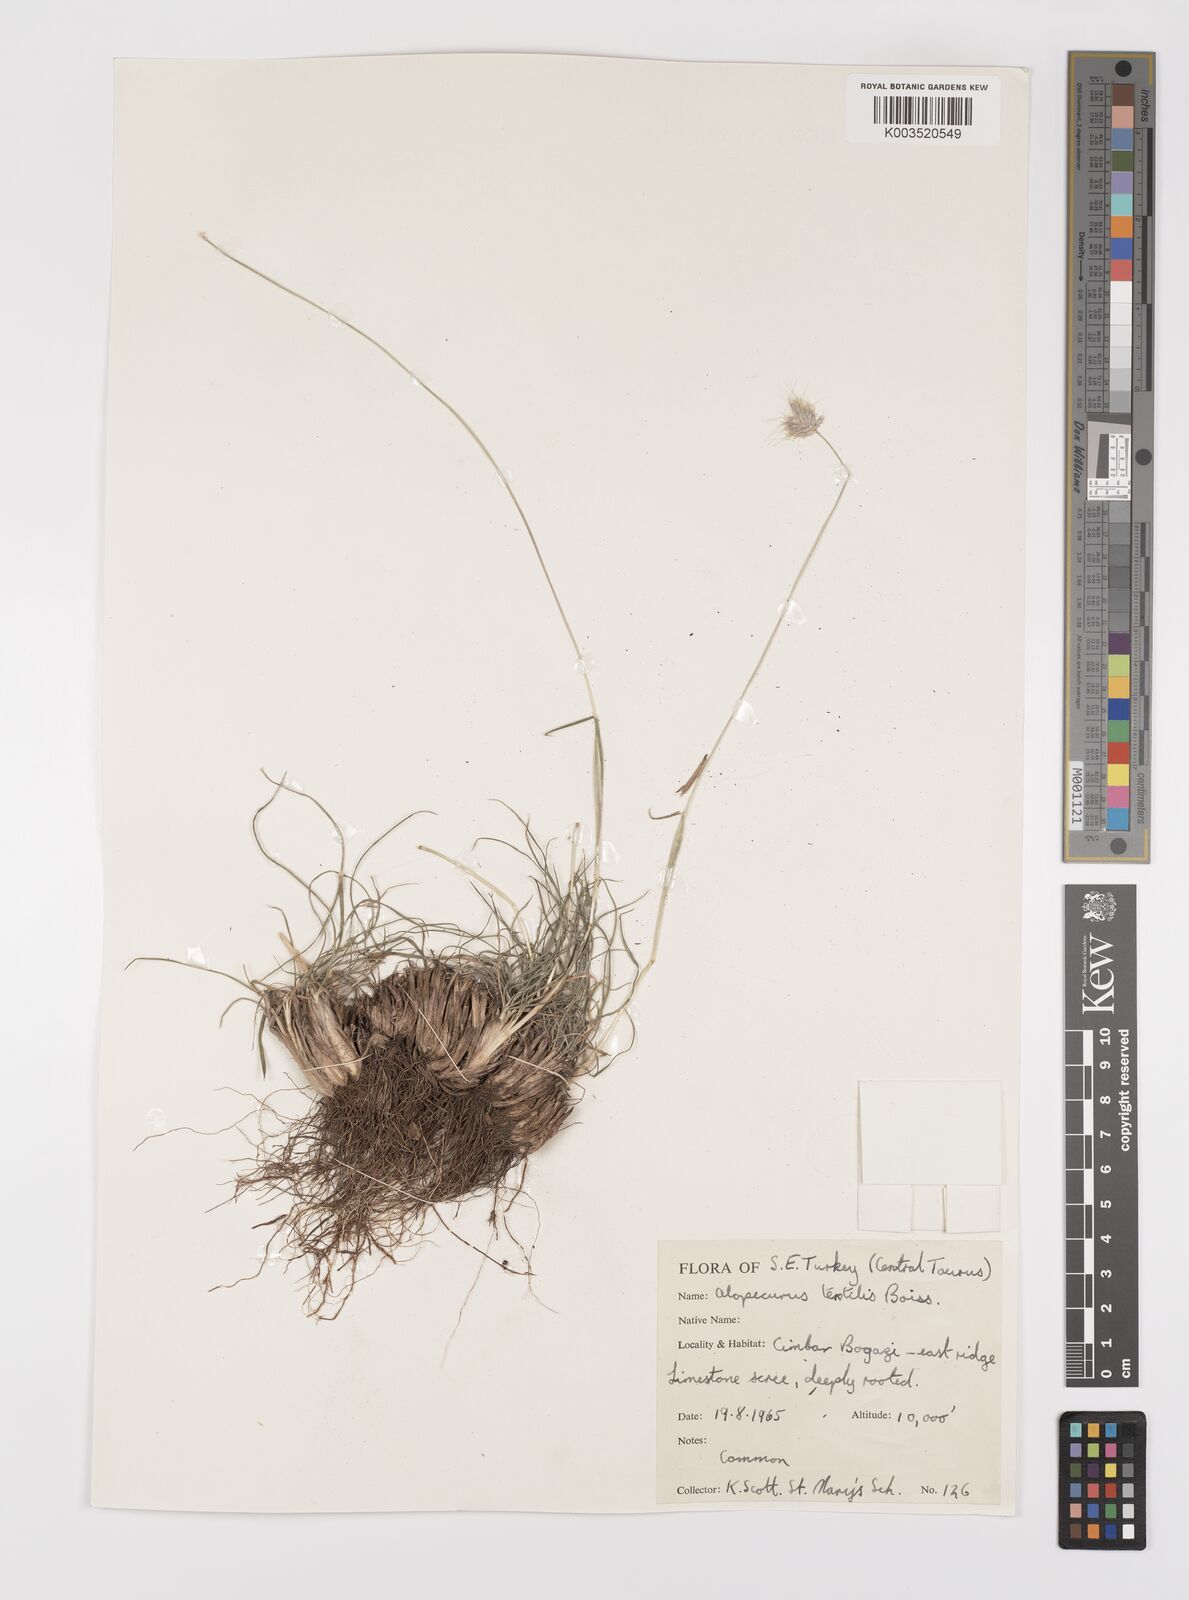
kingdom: Plantae
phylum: Tracheophyta
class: Liliopsida
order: Poales
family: Poaceae
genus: Alopecurus
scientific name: Alopecurus textilis
